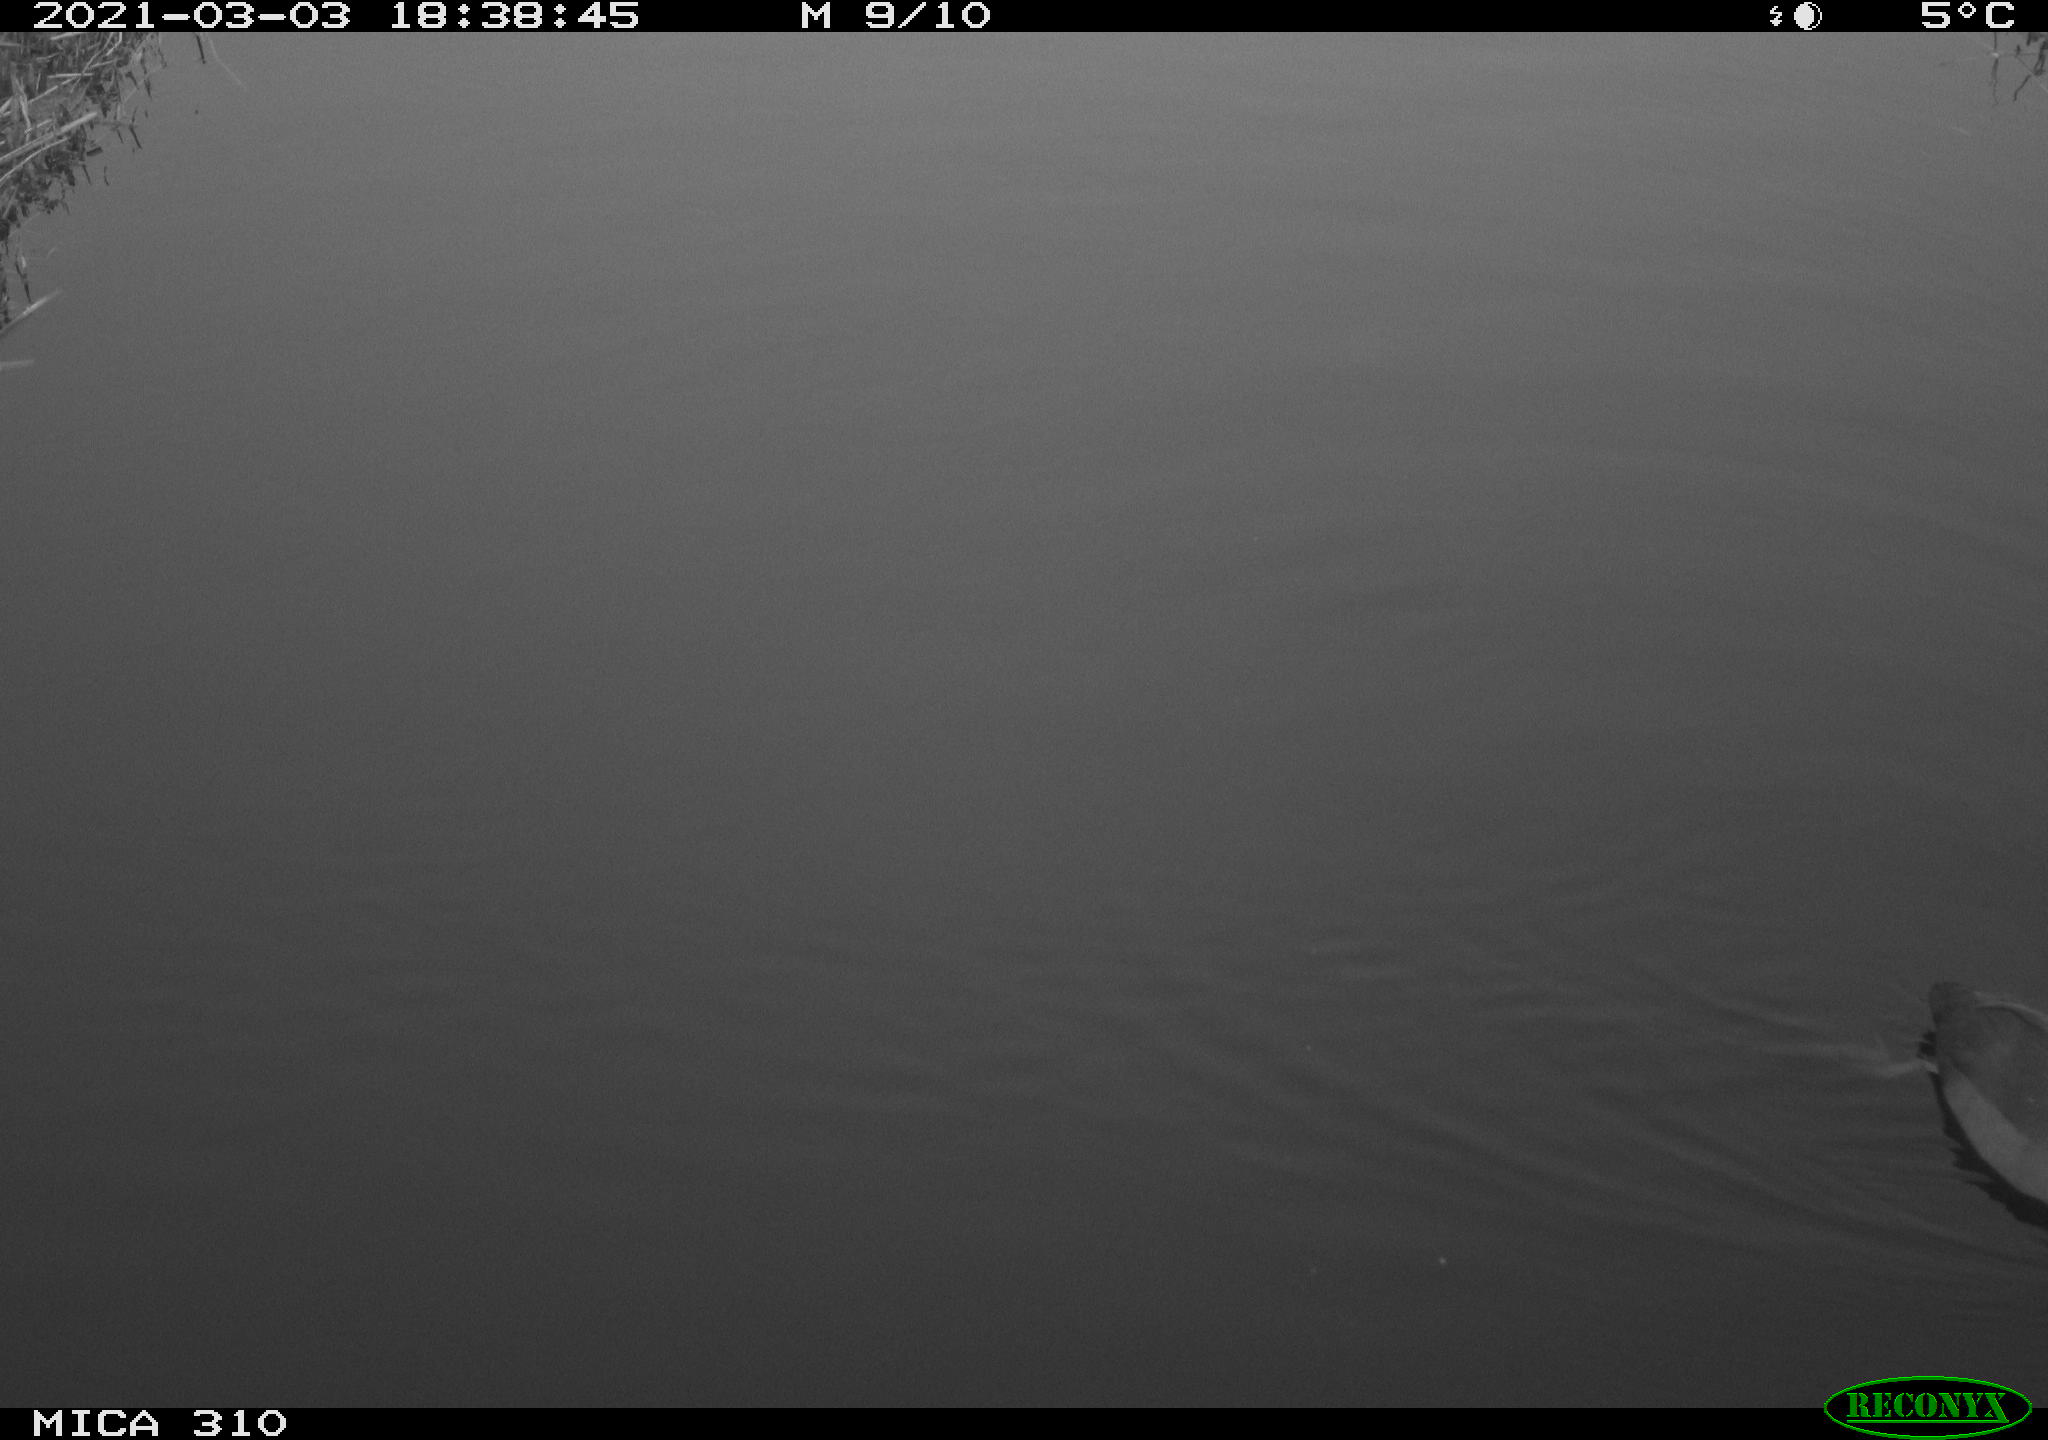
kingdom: Animalia
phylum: Chordata
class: Aves
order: Gruiformes
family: Rallidae
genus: Fulica
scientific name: Fulica atra
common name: Eurasian coot
